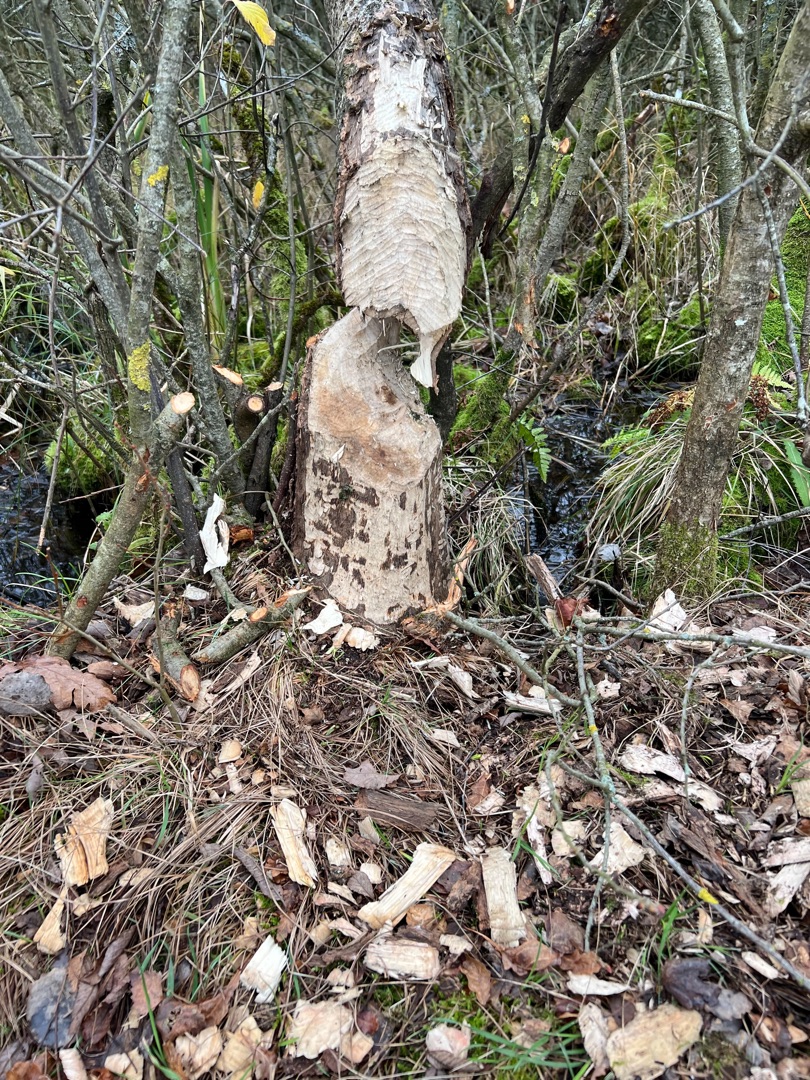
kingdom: Animalia
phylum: Chordata
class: Mammalia
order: Rodentia
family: Castoridae
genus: Castor
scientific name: Castor fiber
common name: Bæver
